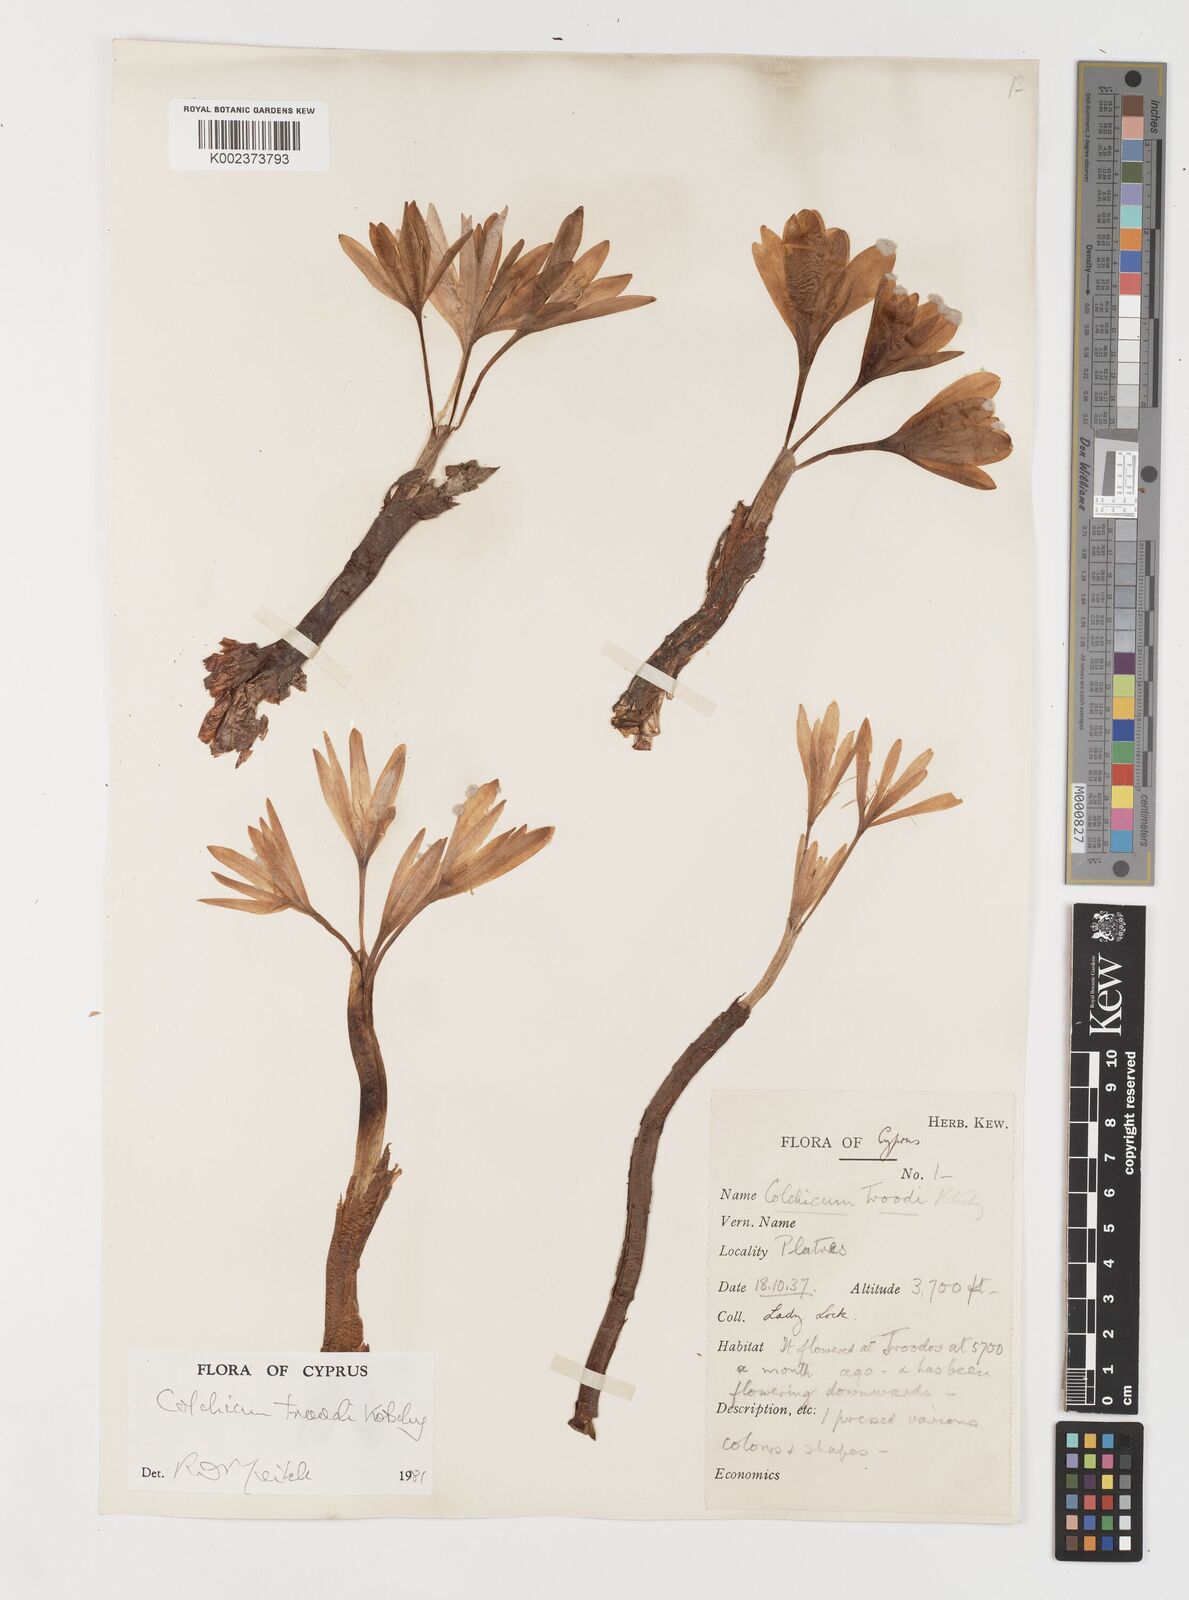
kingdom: Plantae
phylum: Tracheophyta
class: Liliopsida
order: Liliales
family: Colchicaceae
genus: Colchicum
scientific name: Colchicum troodi
